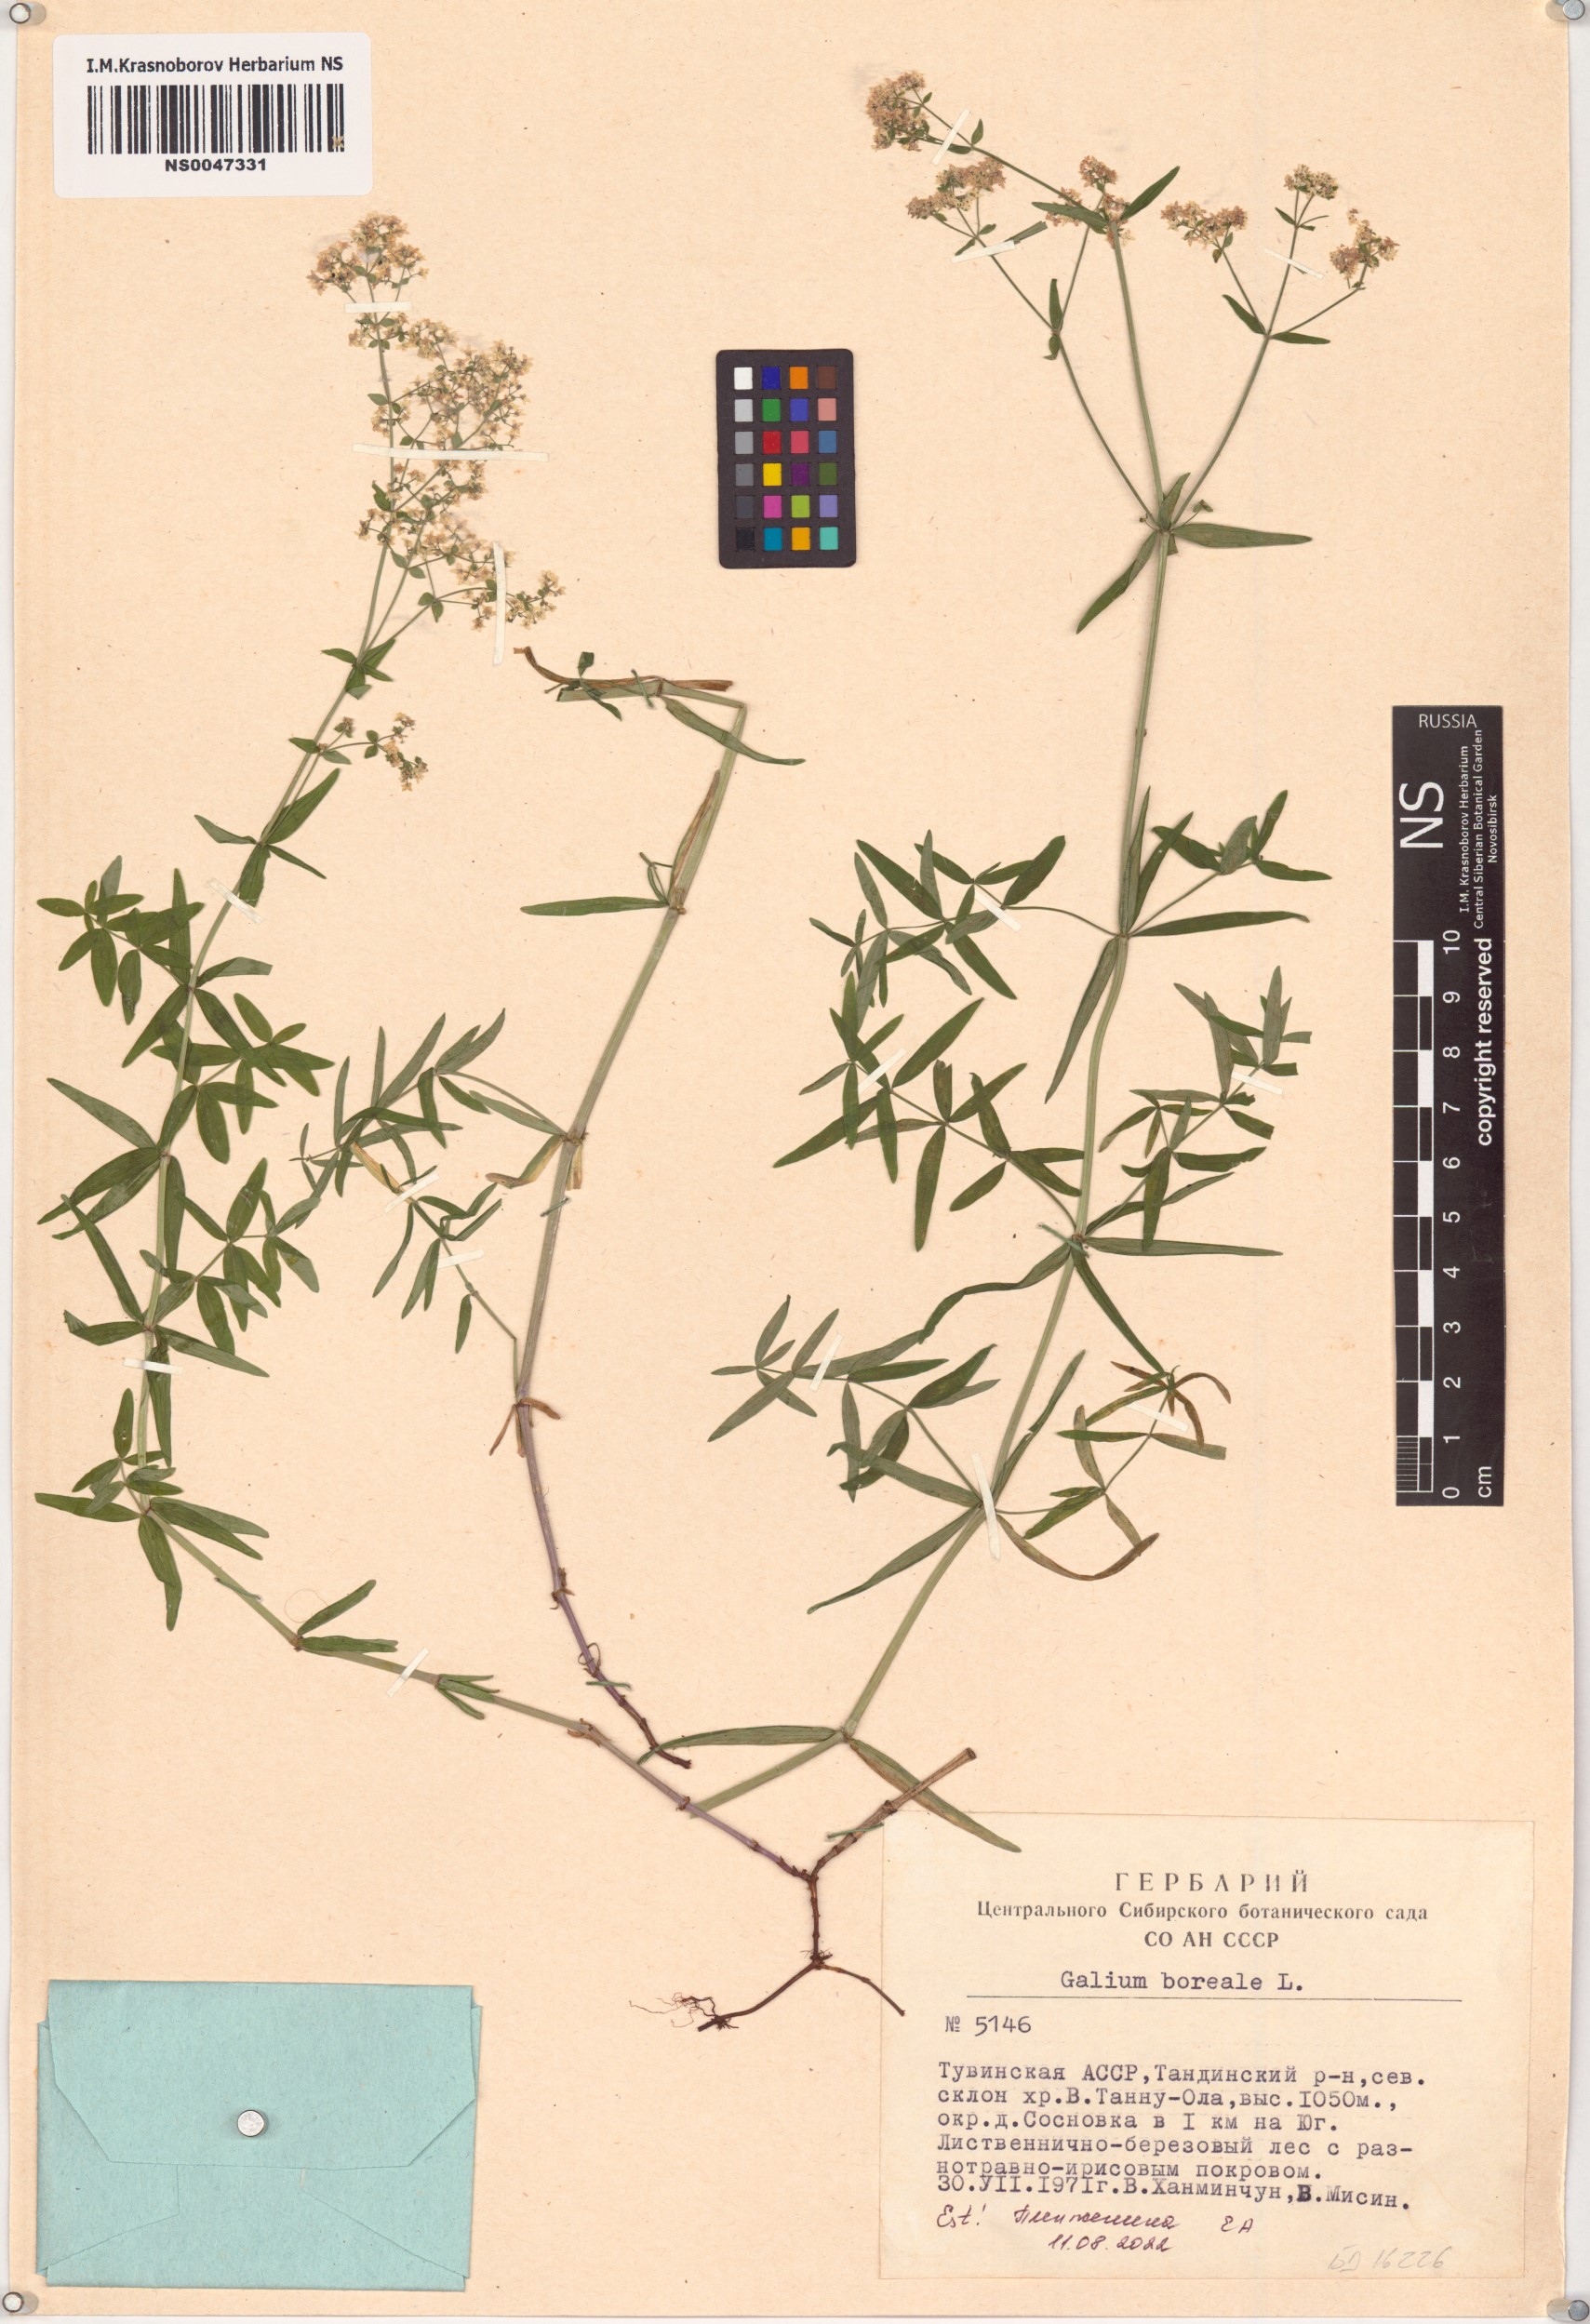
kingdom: Plantae
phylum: Tracheophyta
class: Magnoliopsida
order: Gentianales
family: Rubiaceae
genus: Galium
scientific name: Galium boreale
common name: Northern bedstraw
